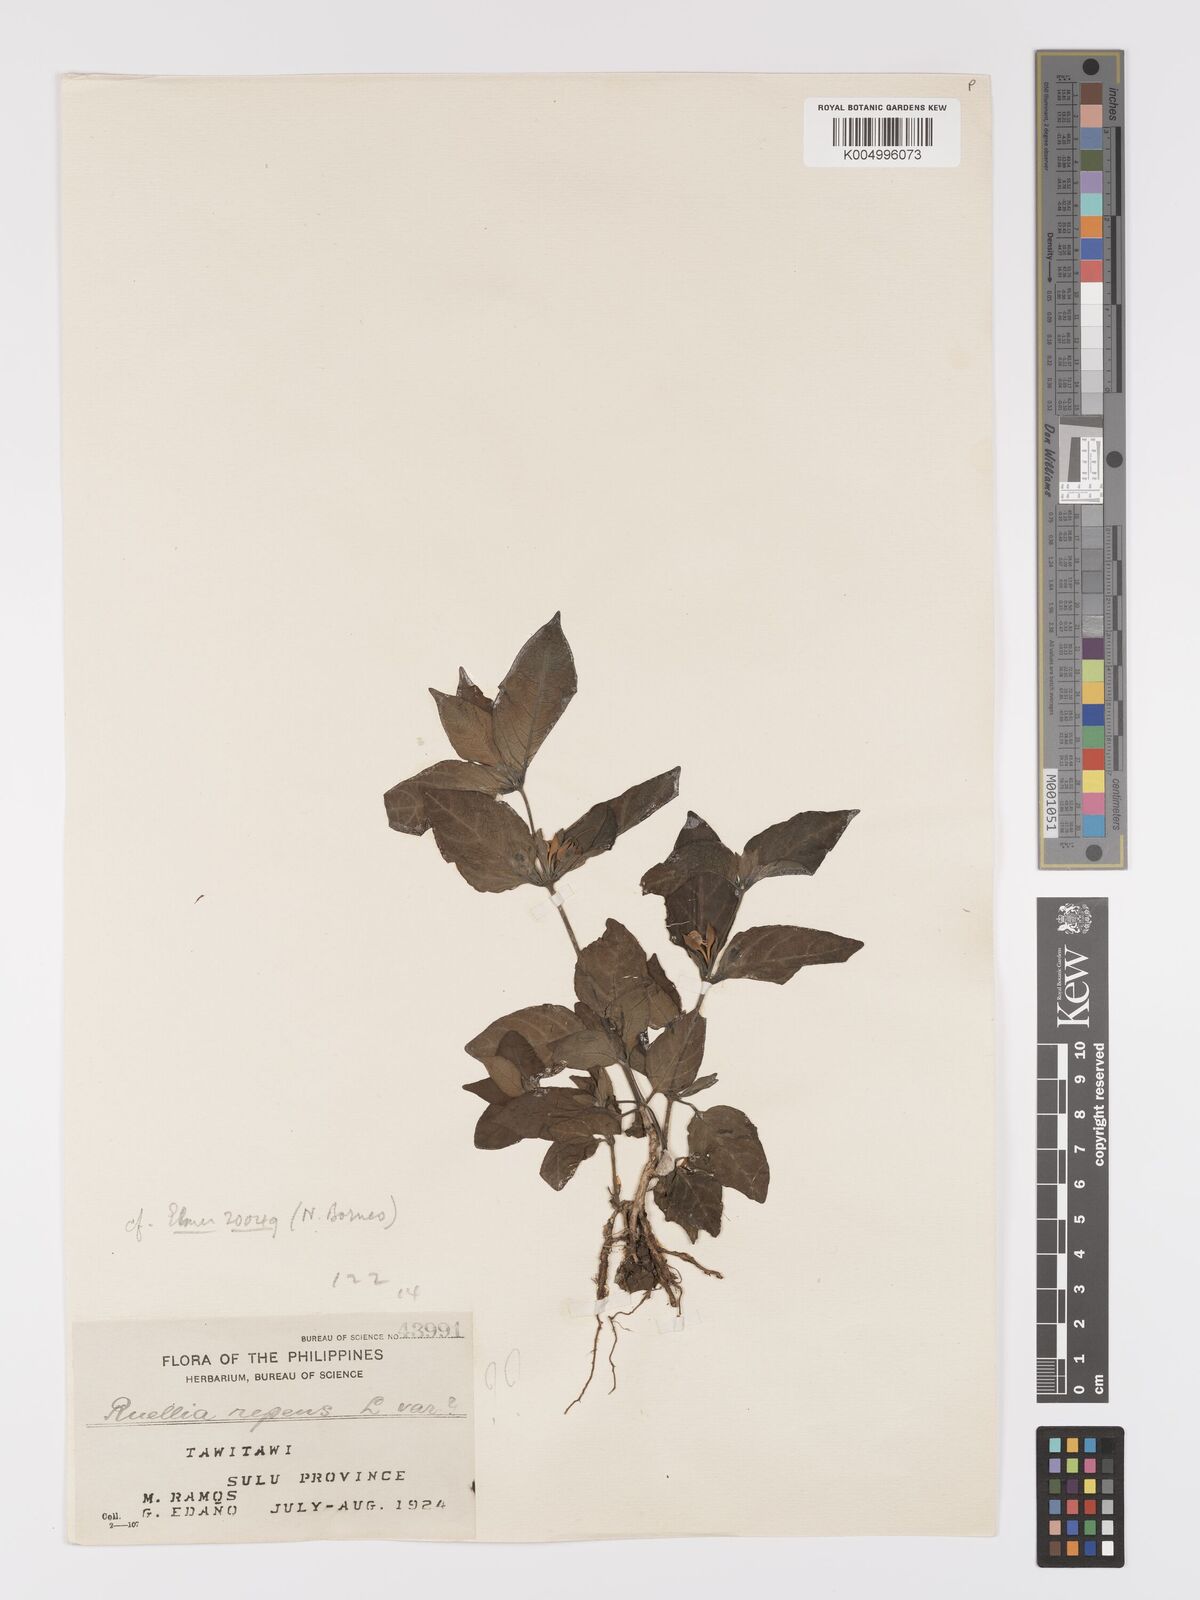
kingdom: Plantae
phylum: Tracheophyta
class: Magnoliopsida
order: Lamiales
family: Acanthaceae
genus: Ruellia
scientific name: Ruellia
